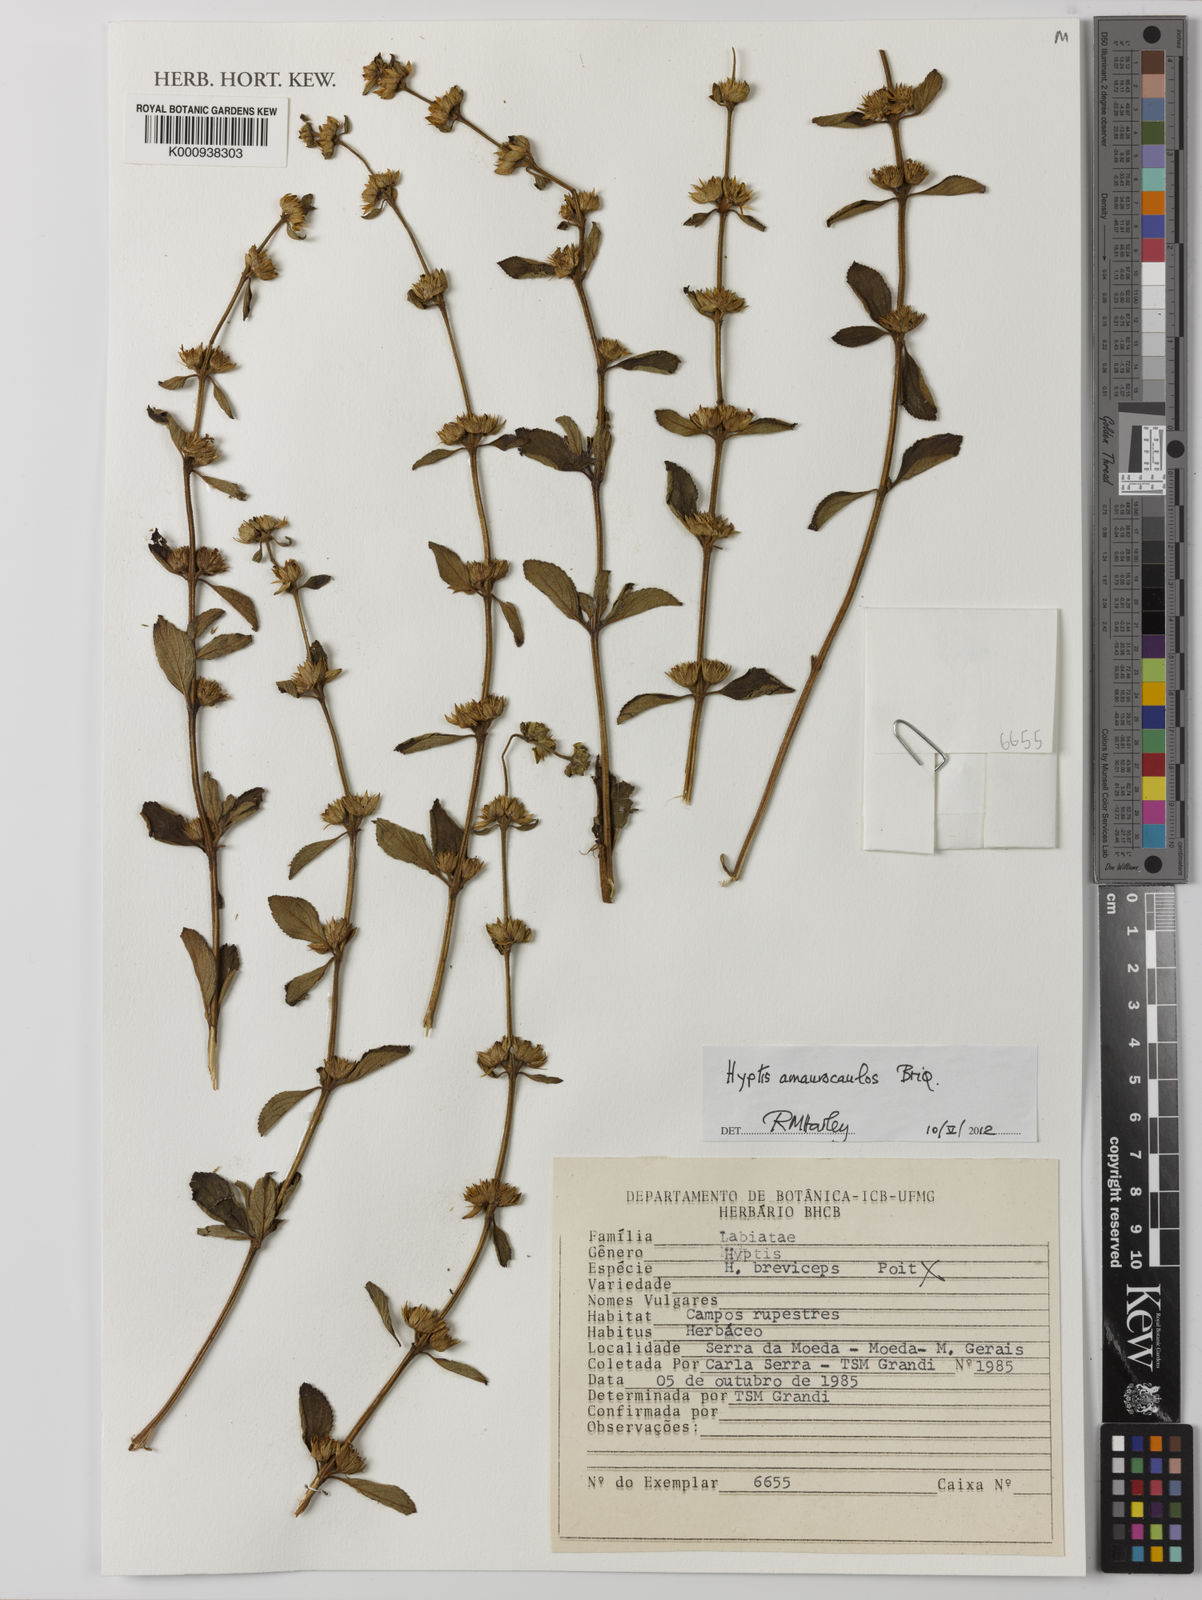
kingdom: Plantae
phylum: Tracheophyta
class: Magnoliopsida
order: Lamiales
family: Lamiaceae
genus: Hyptis
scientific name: Hyptis
